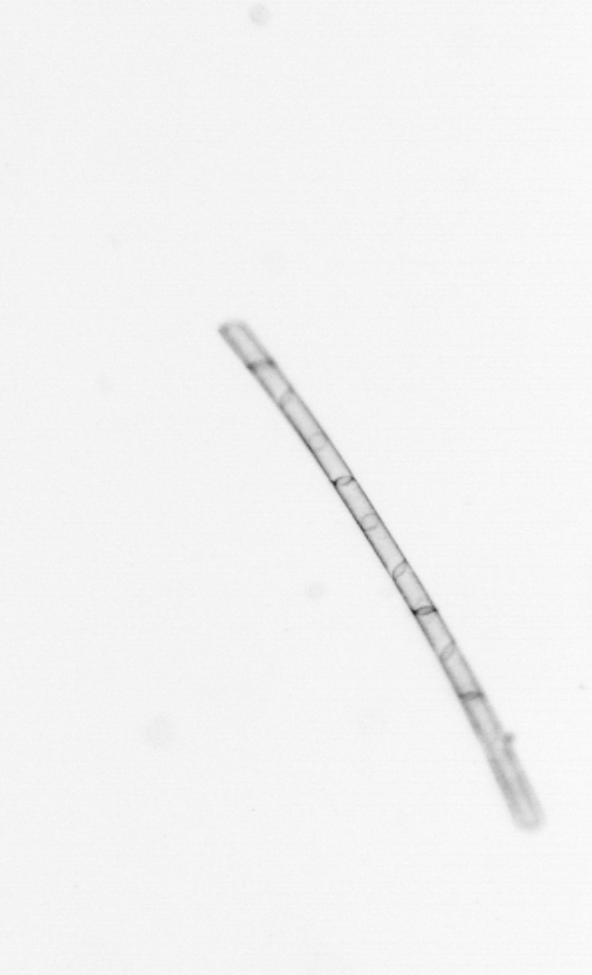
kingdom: Chromista
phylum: Ochrophyta
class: Bacillariophyceae
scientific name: Bacillariophyceae
